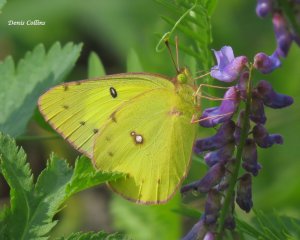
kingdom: Animalia
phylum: Arthropoda
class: Insecta
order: Lepidoptera
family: Pieridae
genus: Colias
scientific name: Colias philodice
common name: Clouded Sulphur
